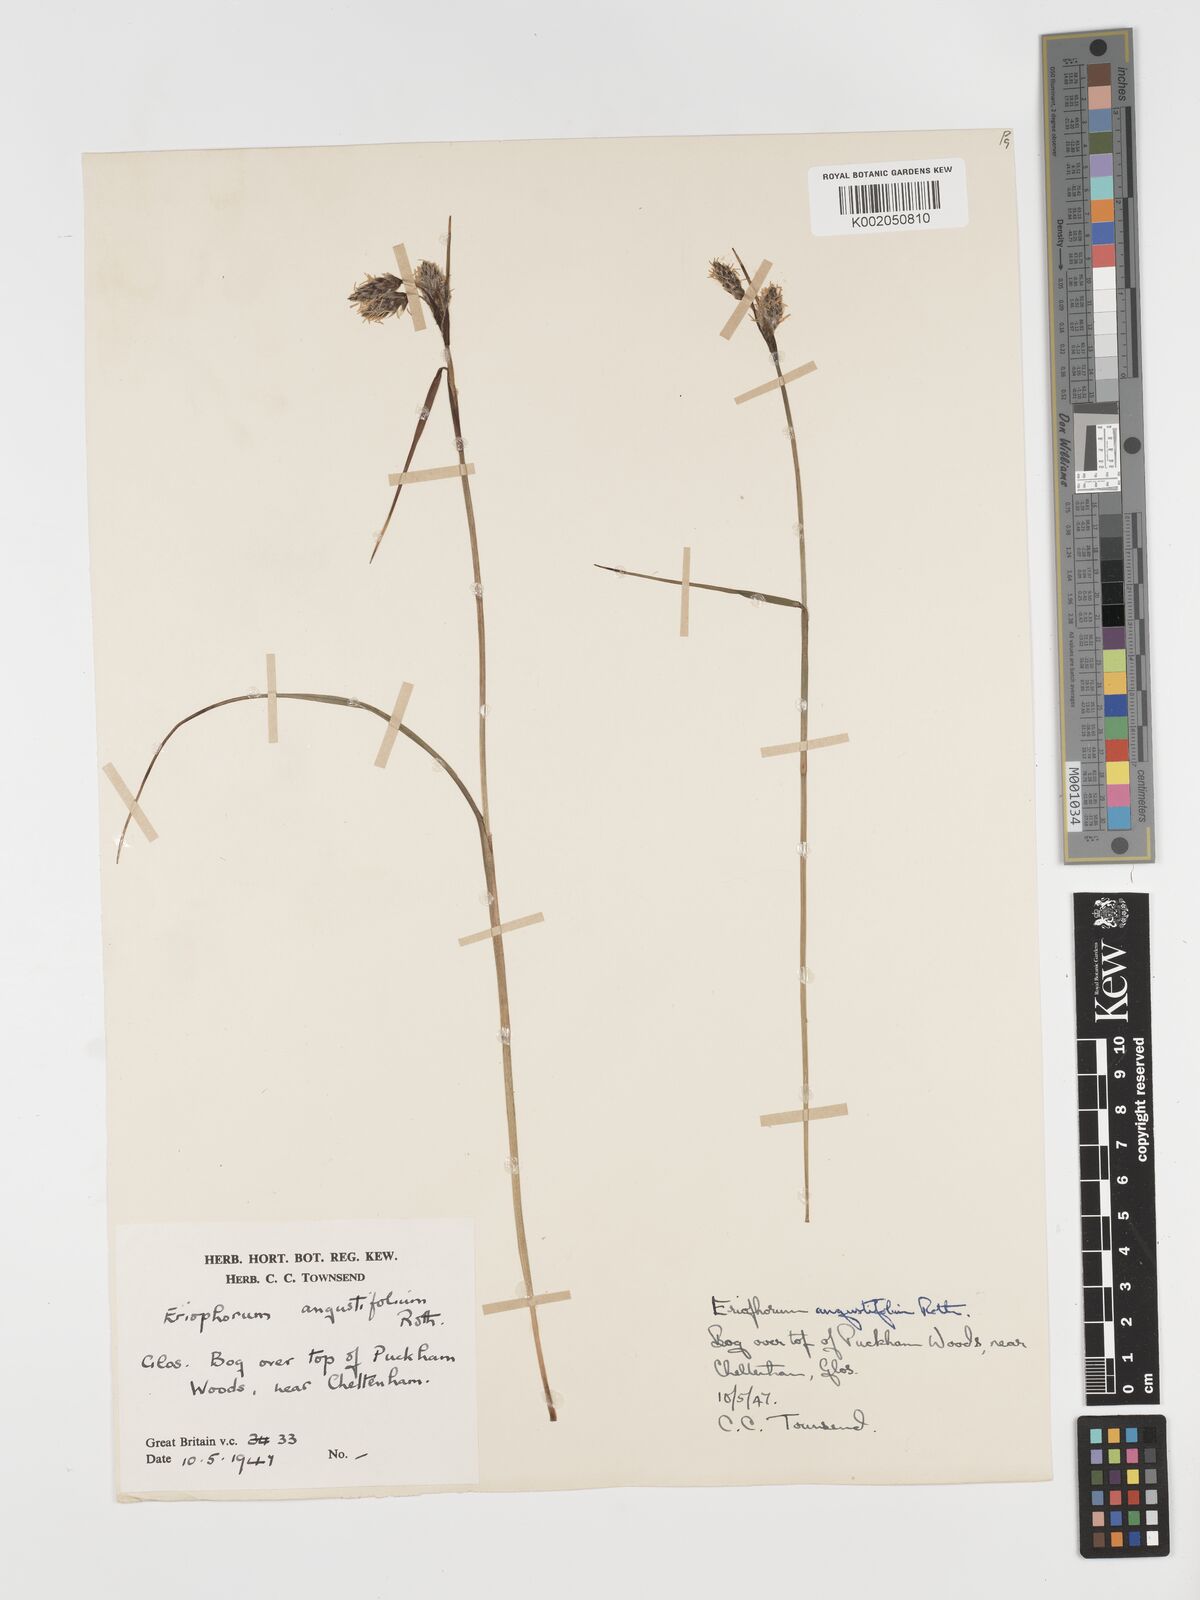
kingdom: Plantae
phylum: Tracheophyta
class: Liliopsida
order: Poales
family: Cyperaceae
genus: Eriophorum
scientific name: Eriophorum angustifolium
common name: Common cottongrass
